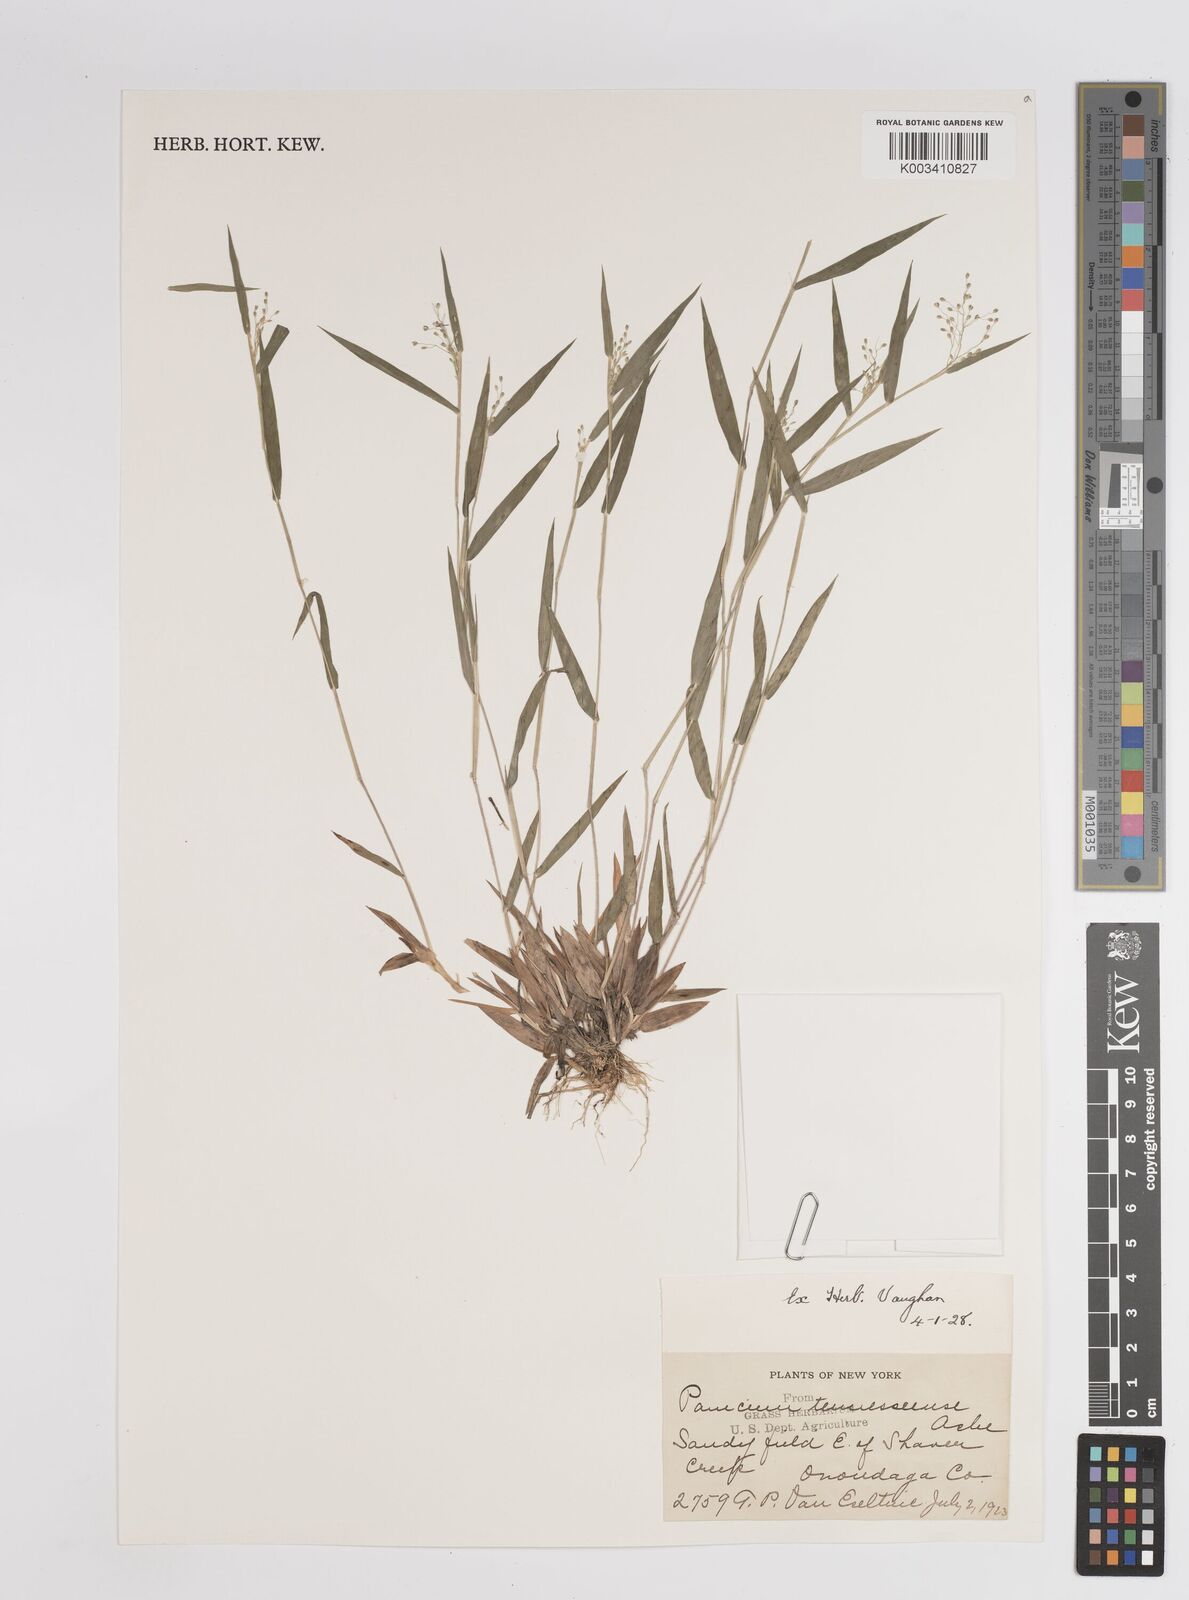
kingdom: Plantae
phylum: Tracheophyta
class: Liliopsida
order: Poales
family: Poaceae
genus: Dichanthelium
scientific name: Dichanthelium implicatum
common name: Slender-stemmed panicgrass
